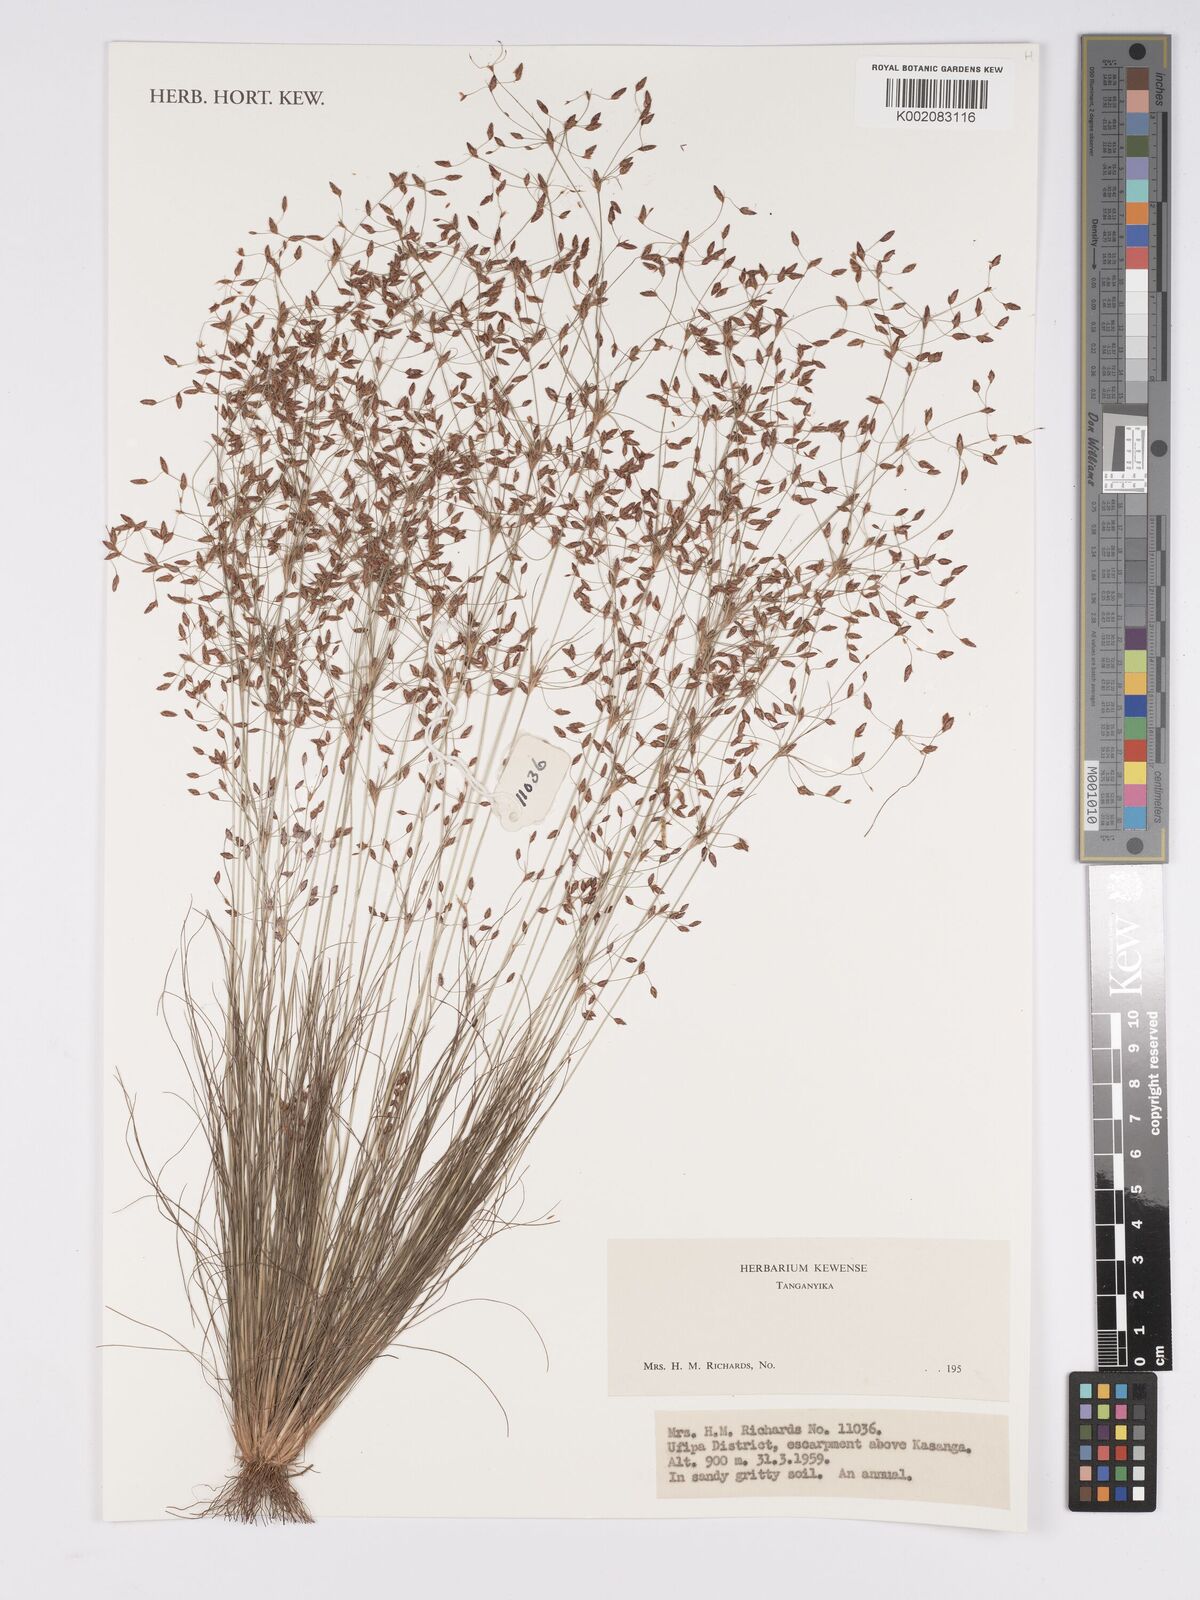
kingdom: Plantae
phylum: Tracheophyta
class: Magnoliopsida
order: Asterales
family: Asteraceae
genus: Bulbostylis
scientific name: Bulbostylis
